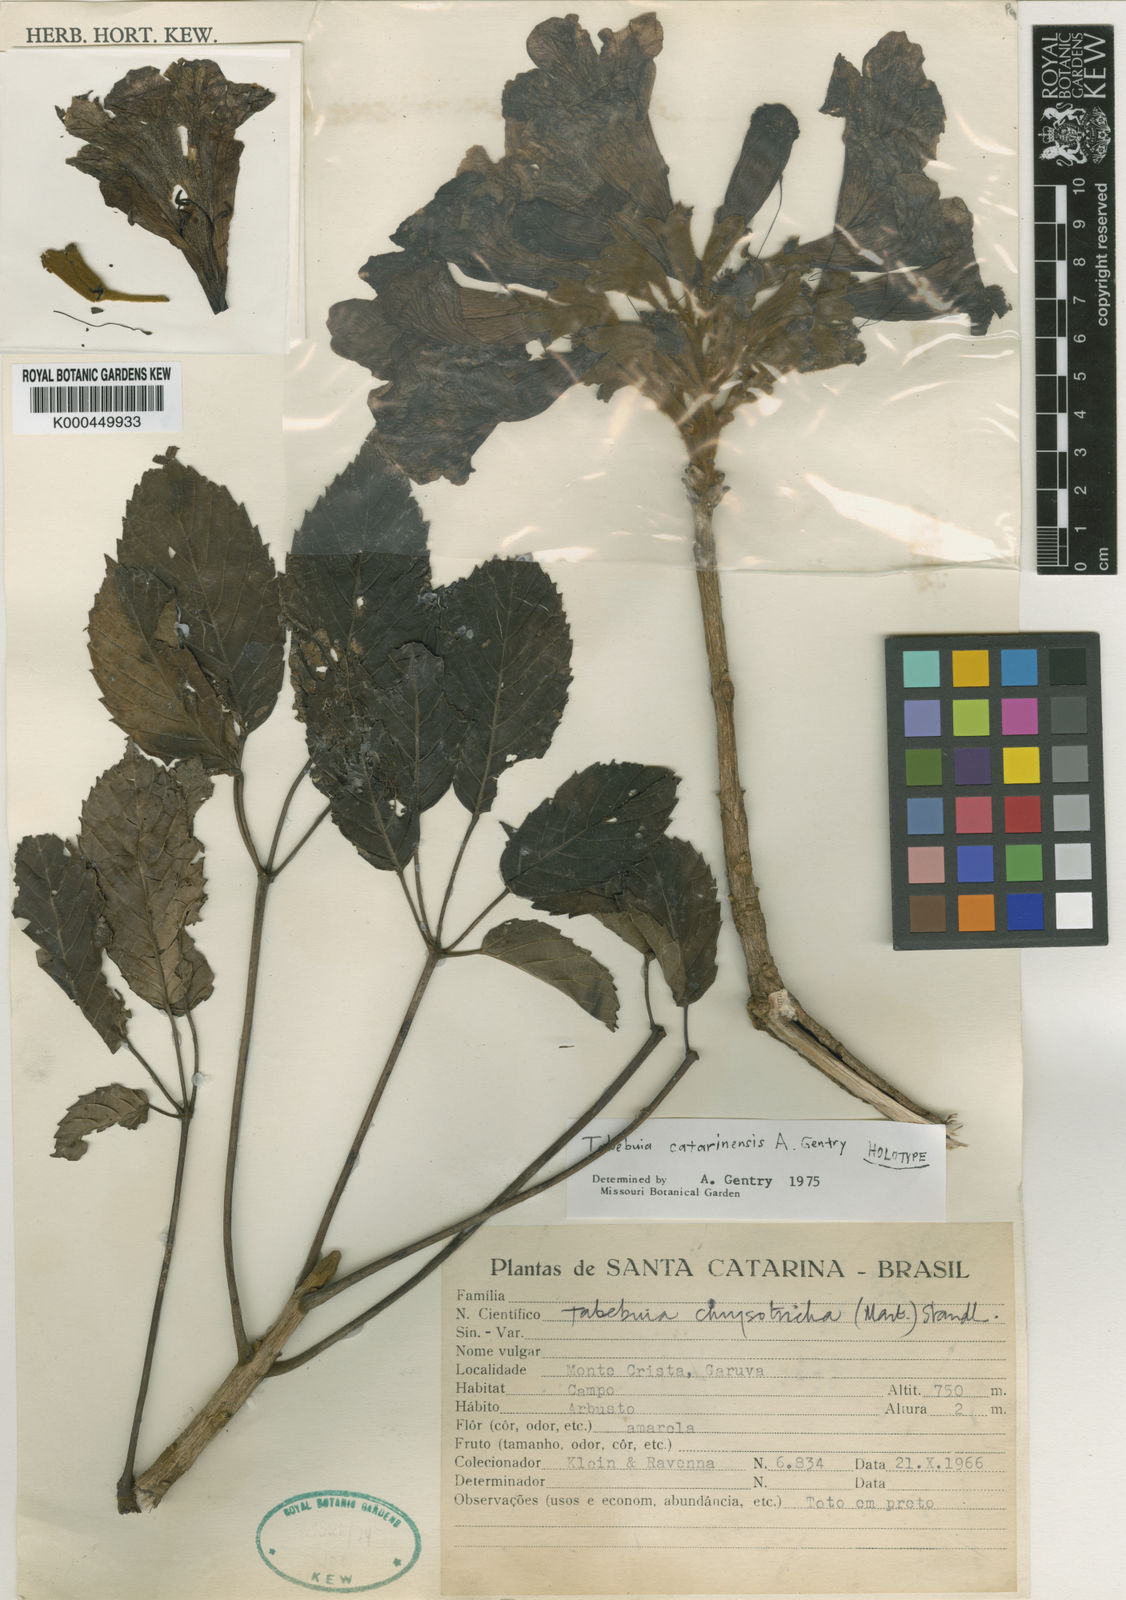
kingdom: Plantae
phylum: Tracheophyta
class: Magnoliopsida
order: Lamiales
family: Bignoniaceae
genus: Handroanthus
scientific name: Handroanthus catarinensis
